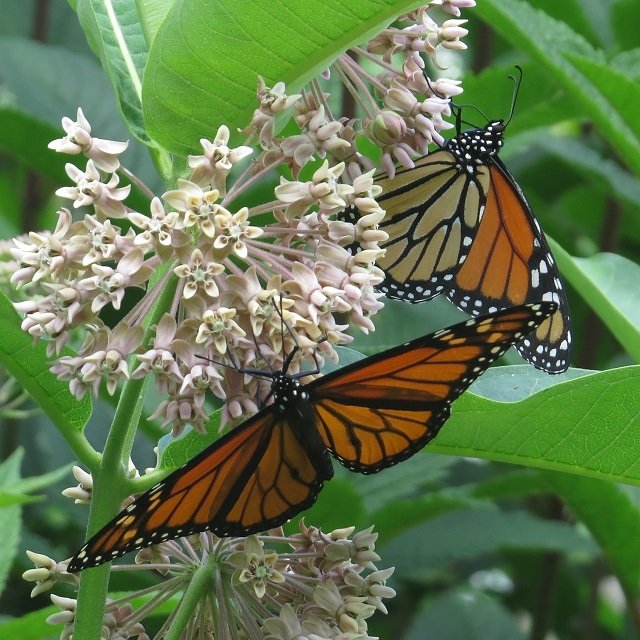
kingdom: Animalia
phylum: Arthropoda
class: Insecta
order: Lepidoptera
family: Nymphalidae
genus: Danaus
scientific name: Danaus plexippus
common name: Monarch
